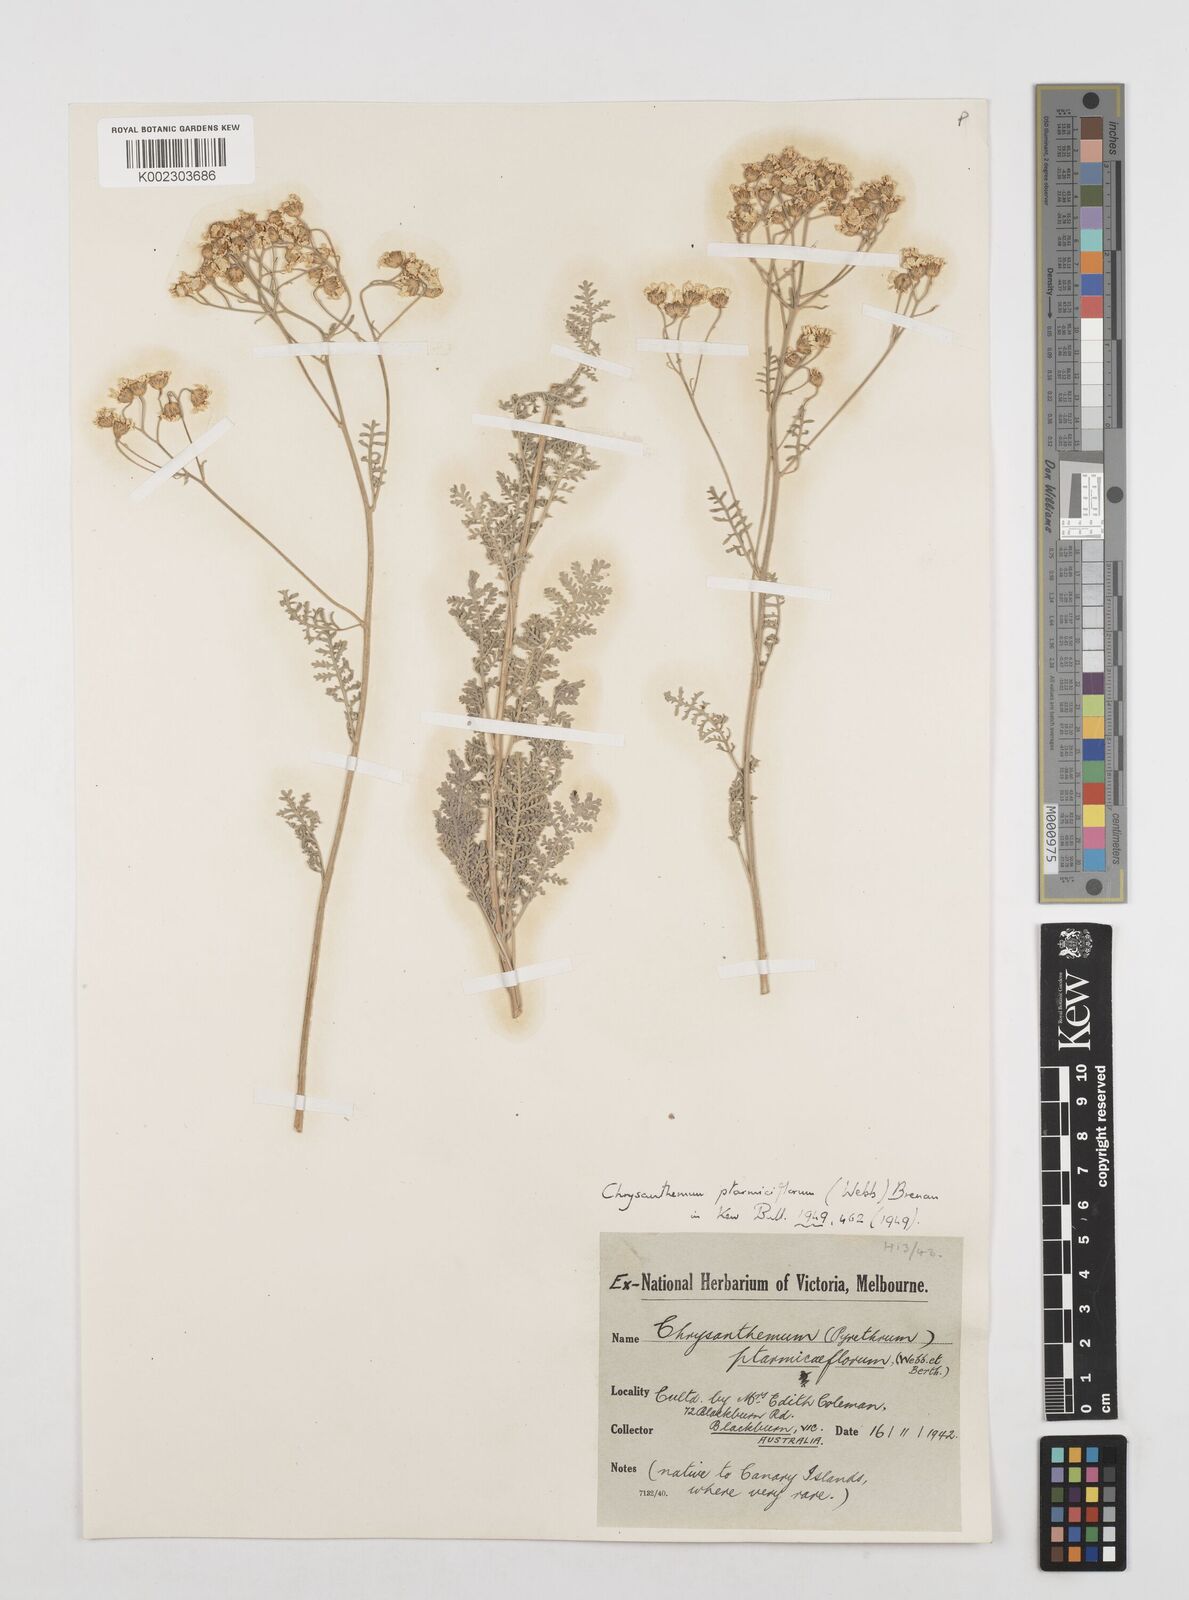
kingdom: Plantae
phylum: Tracheophyta
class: Magnoliopsida
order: Asterales
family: Asteraceae
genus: Gonospermum
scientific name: Gonospermum ptarmiciflorum
